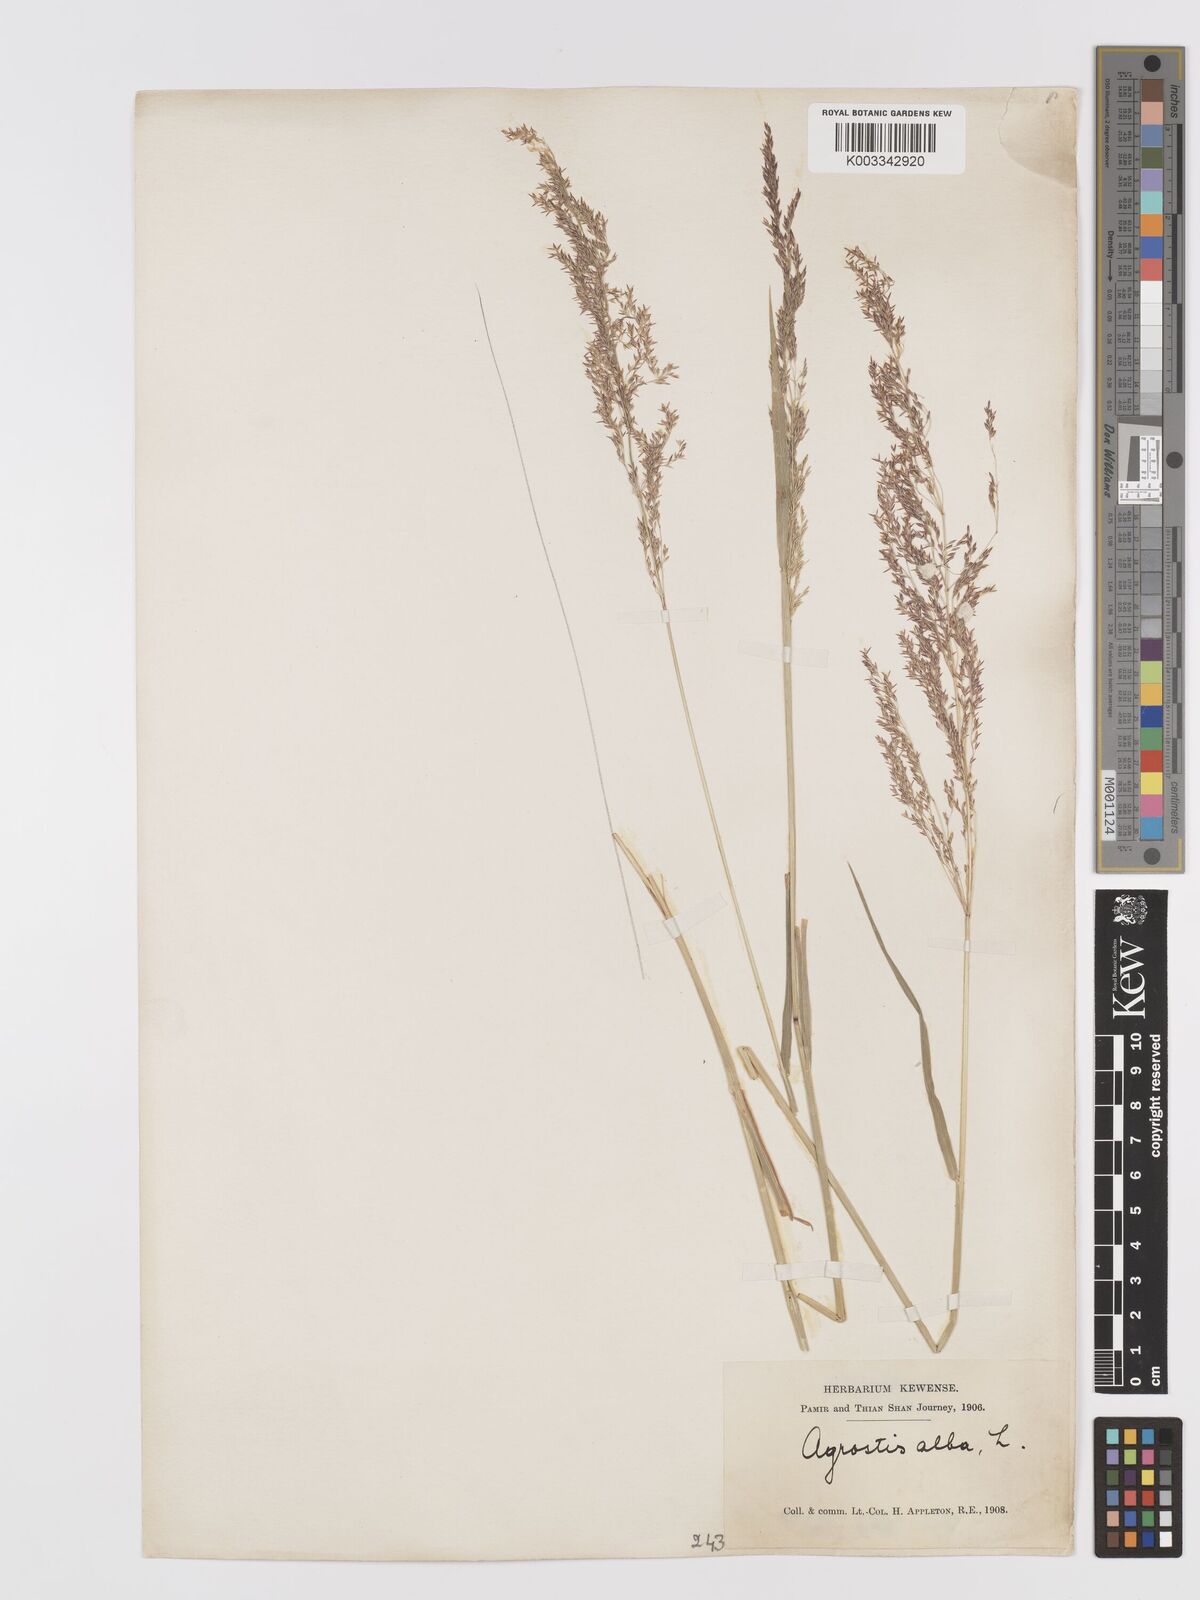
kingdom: Plantae
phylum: Tracheophyta
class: Liliopsida
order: Poales
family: Poaceae
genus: Agrostis
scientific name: Agrostis gigantea
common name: Black bent
